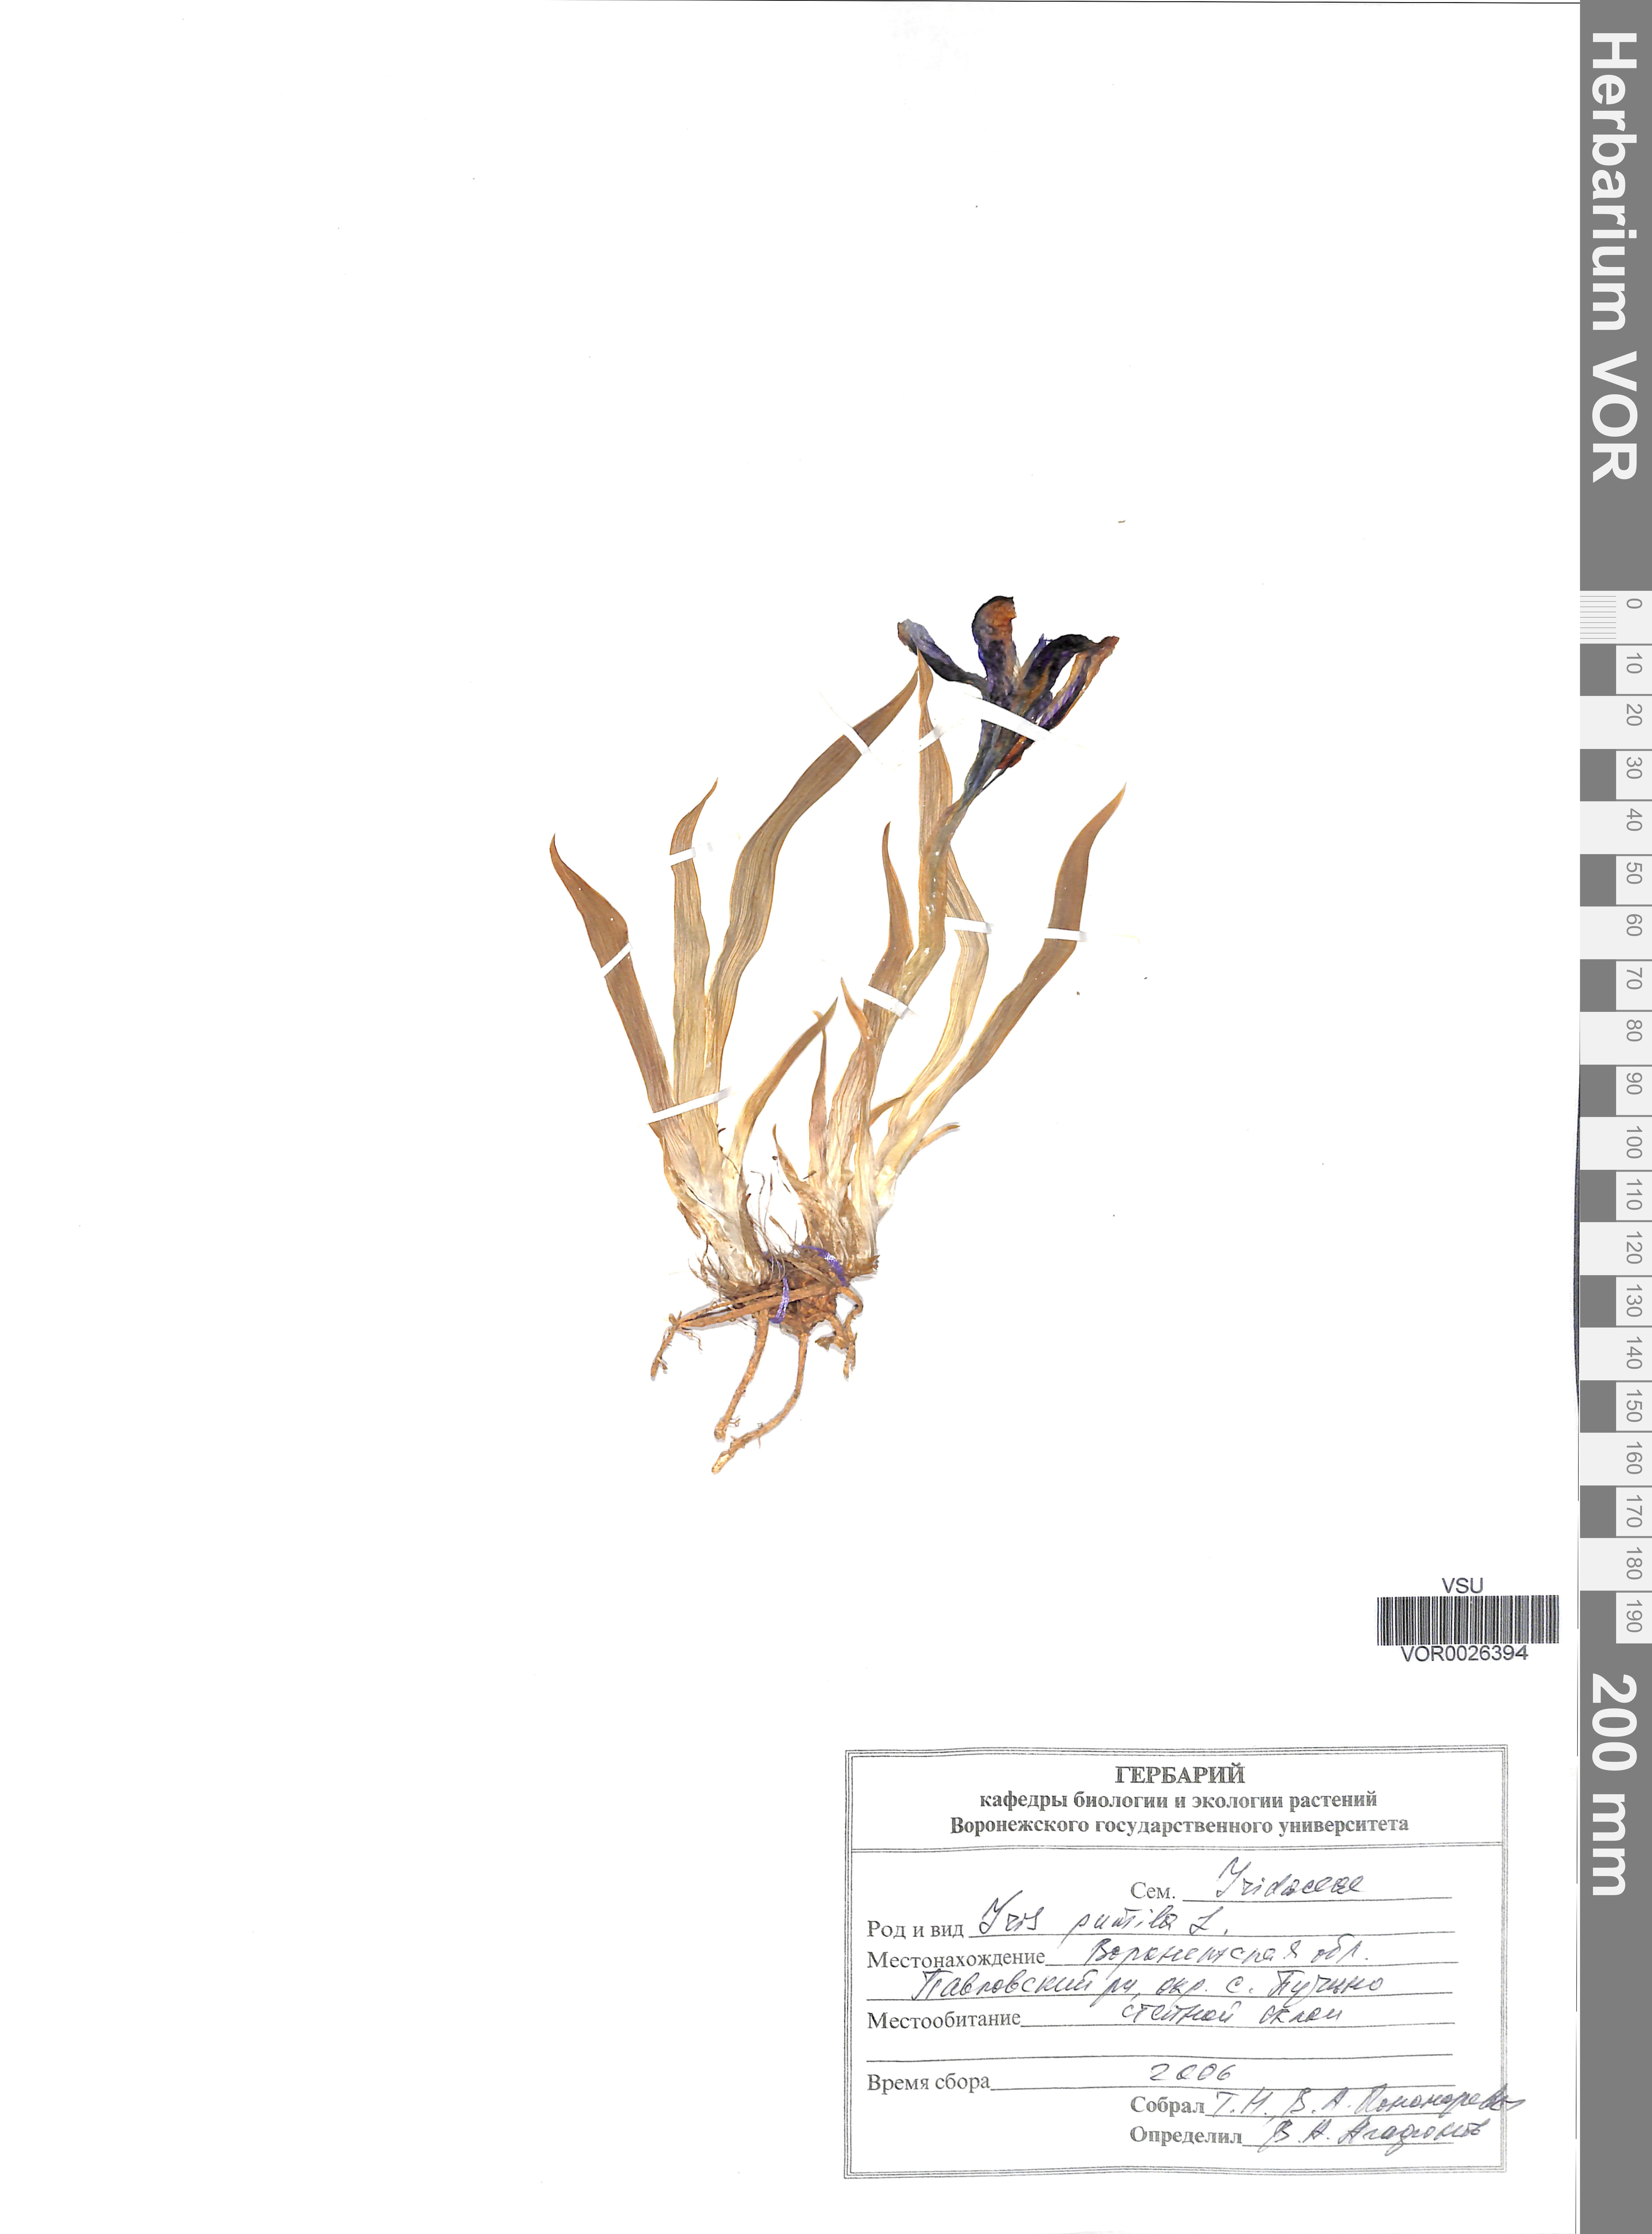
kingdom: Plantae
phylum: Tracheophyta
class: Liliopsida
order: Asparagales
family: Iridaceae
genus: Iris
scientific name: Iris pumila
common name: Dwarf iris
